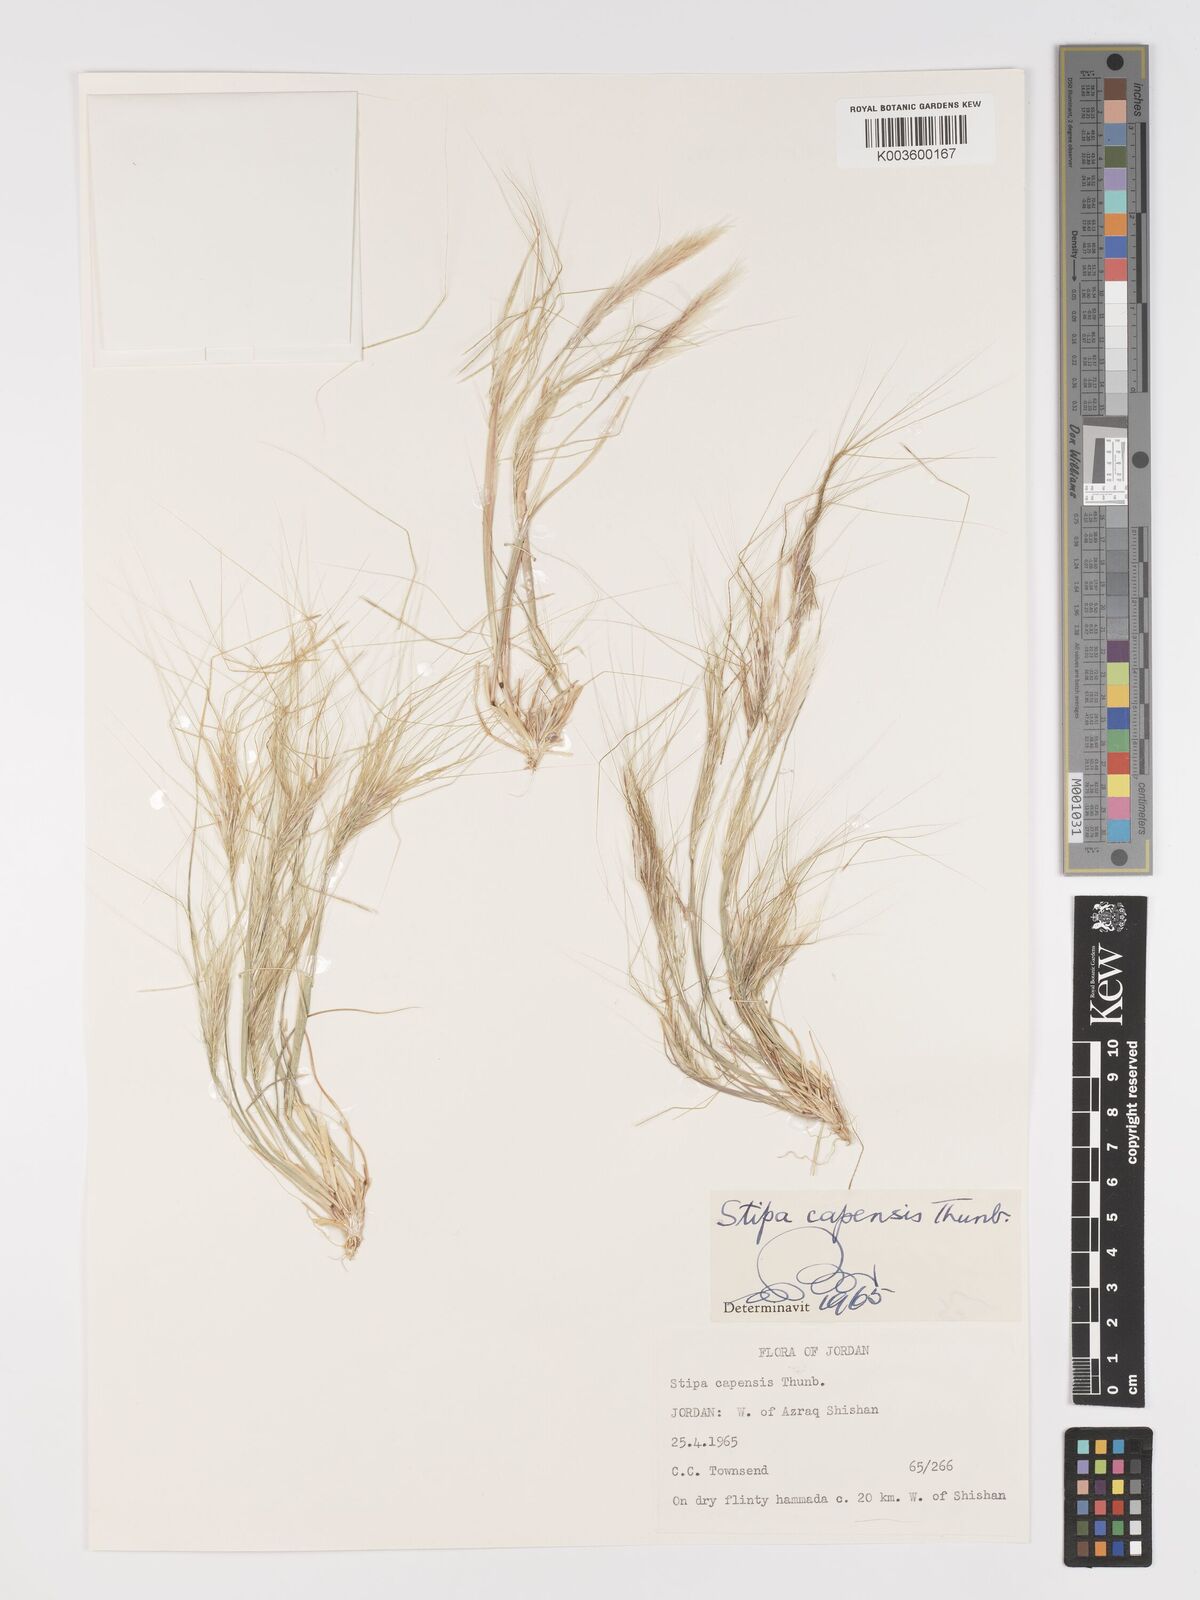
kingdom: Plantae
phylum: Tracheophyta
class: Liliopsida
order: Poales
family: Poaceae
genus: Stipellula
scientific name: Stipellula capensis
